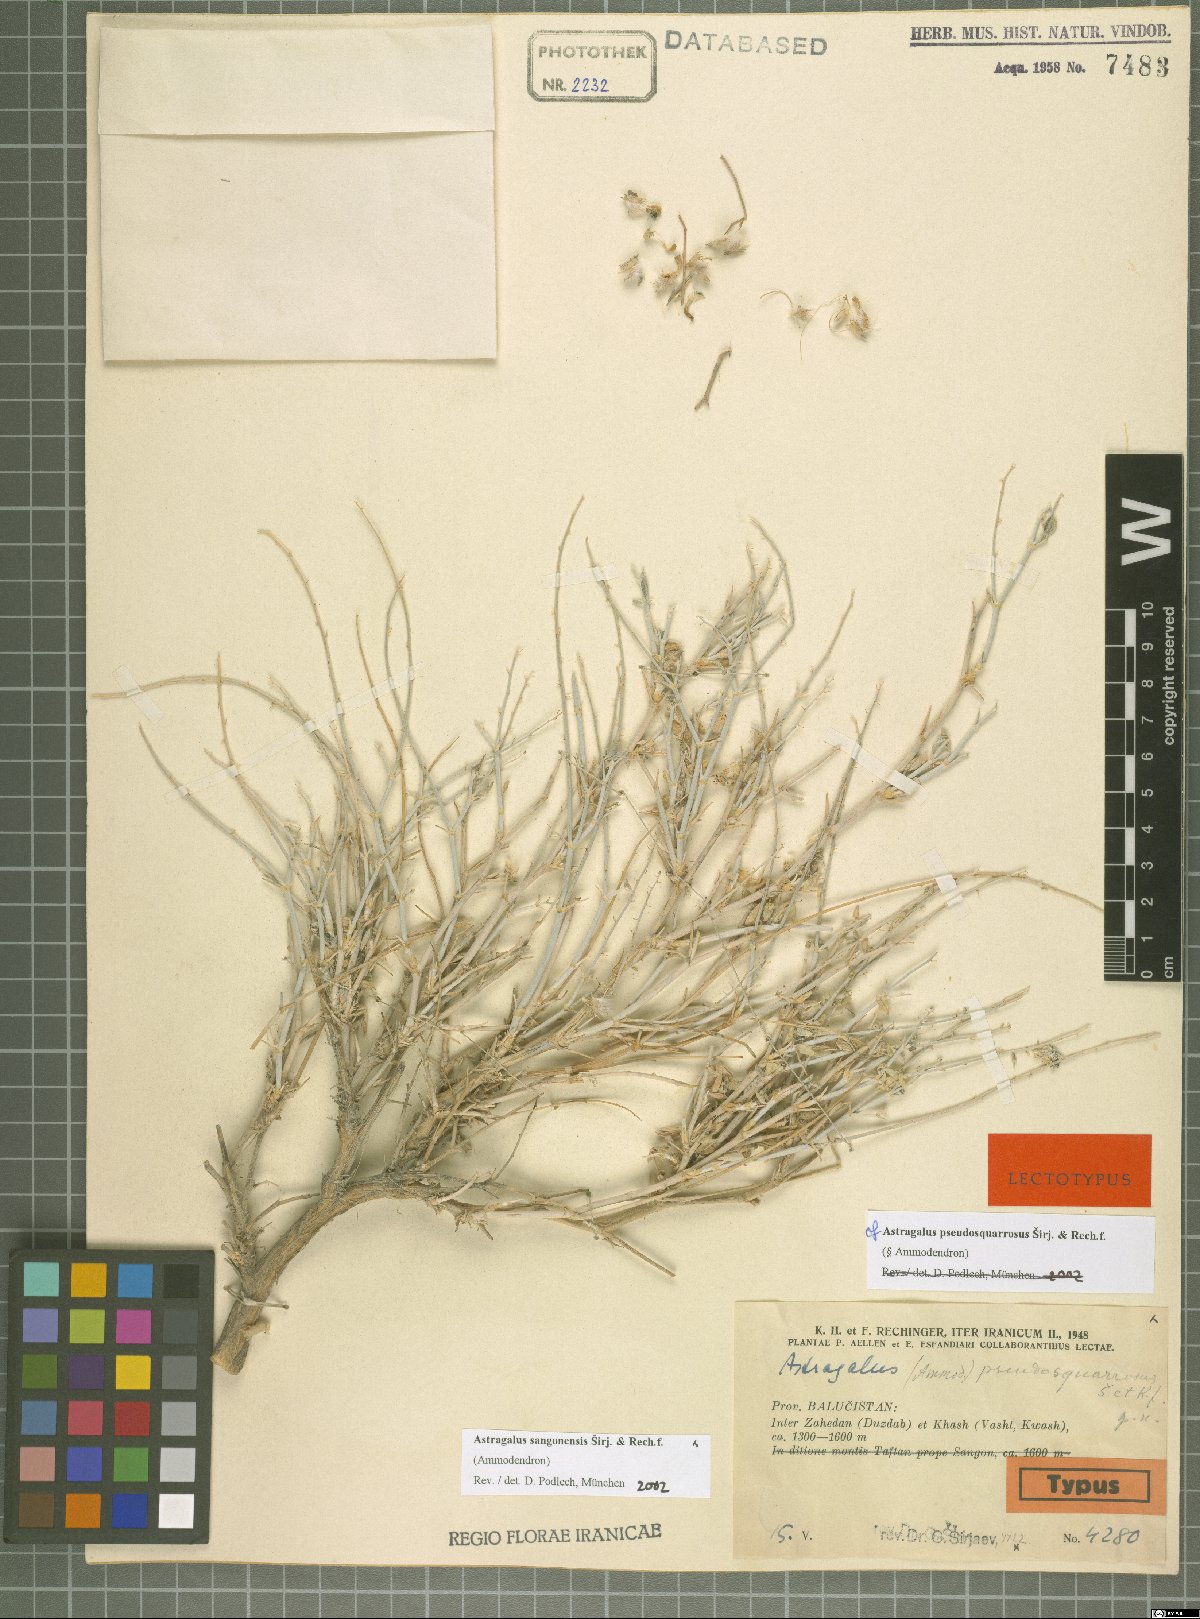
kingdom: Plantae
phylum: Tracheophyta
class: Magnoliopsida
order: Fabales
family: Fabaceae
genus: Astragalus
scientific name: Astragalus sangonensis
